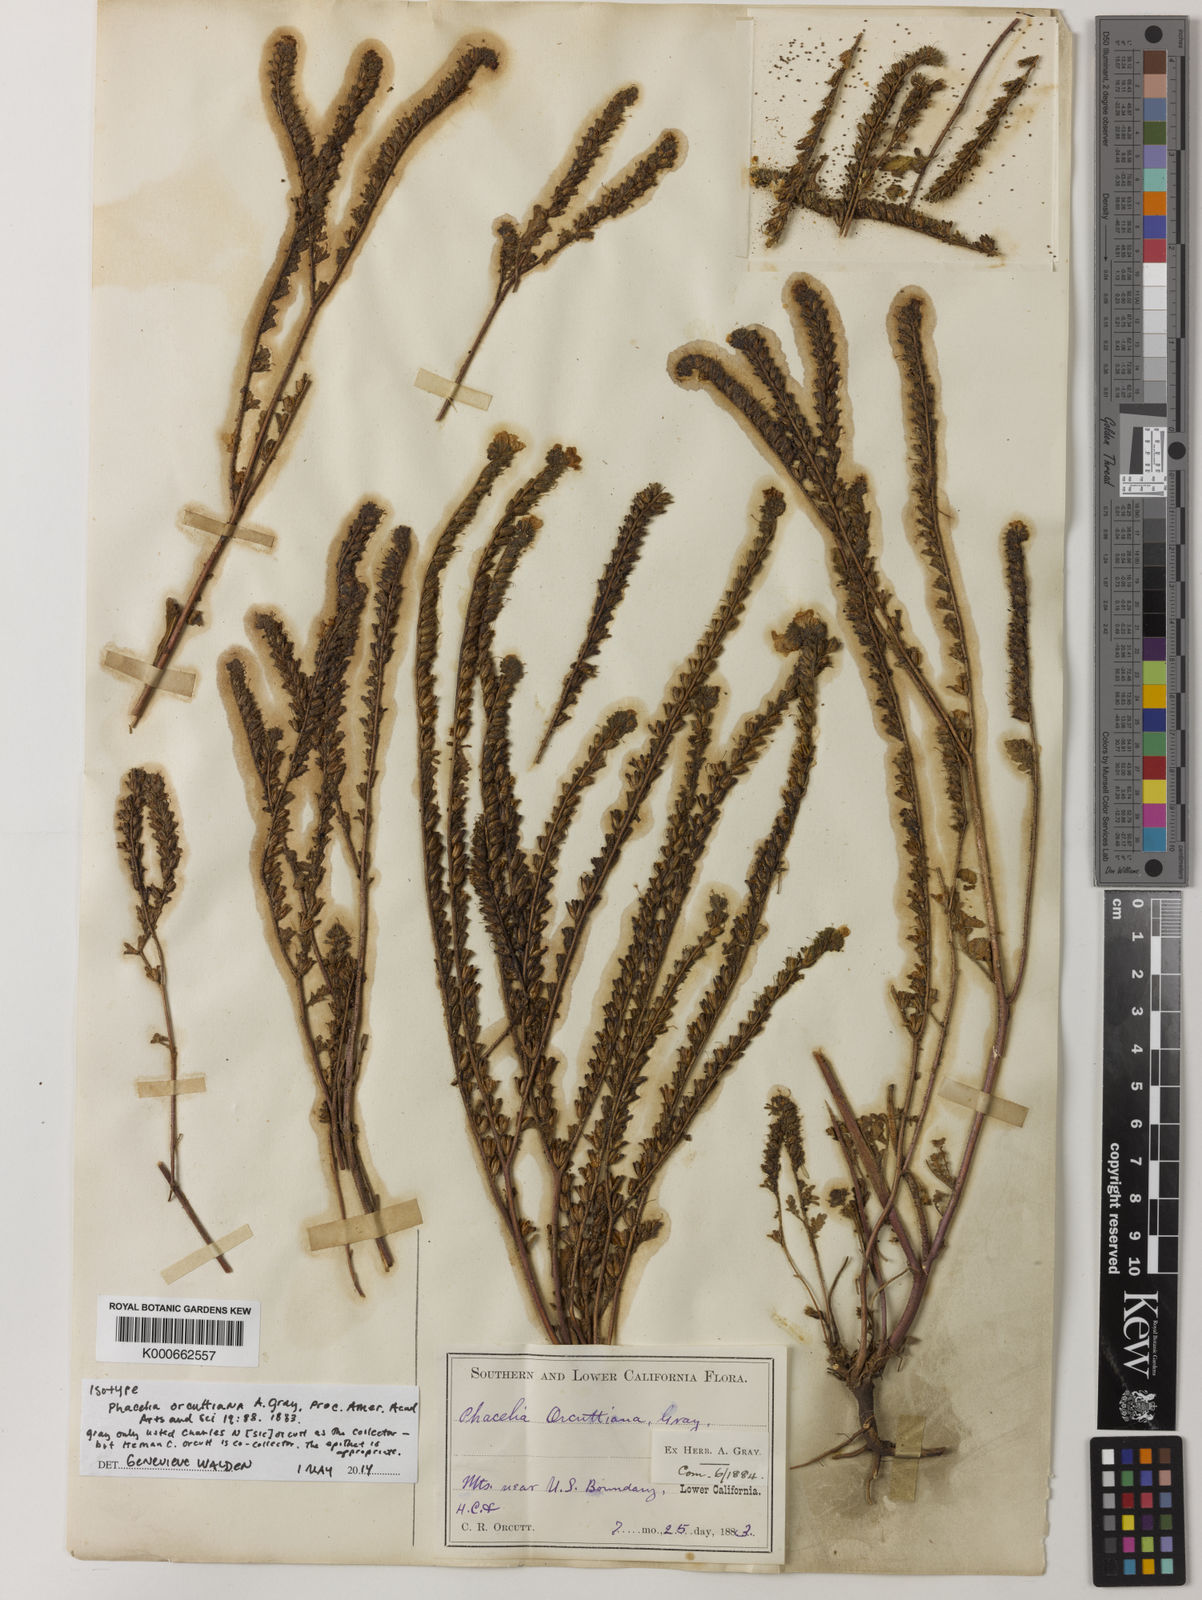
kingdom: Plantae
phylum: Tracheophyta
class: Magnoliopsida
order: Boraginales
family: Hydrophyllaceae
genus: Phacelia
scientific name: Phacelia brachyloba
